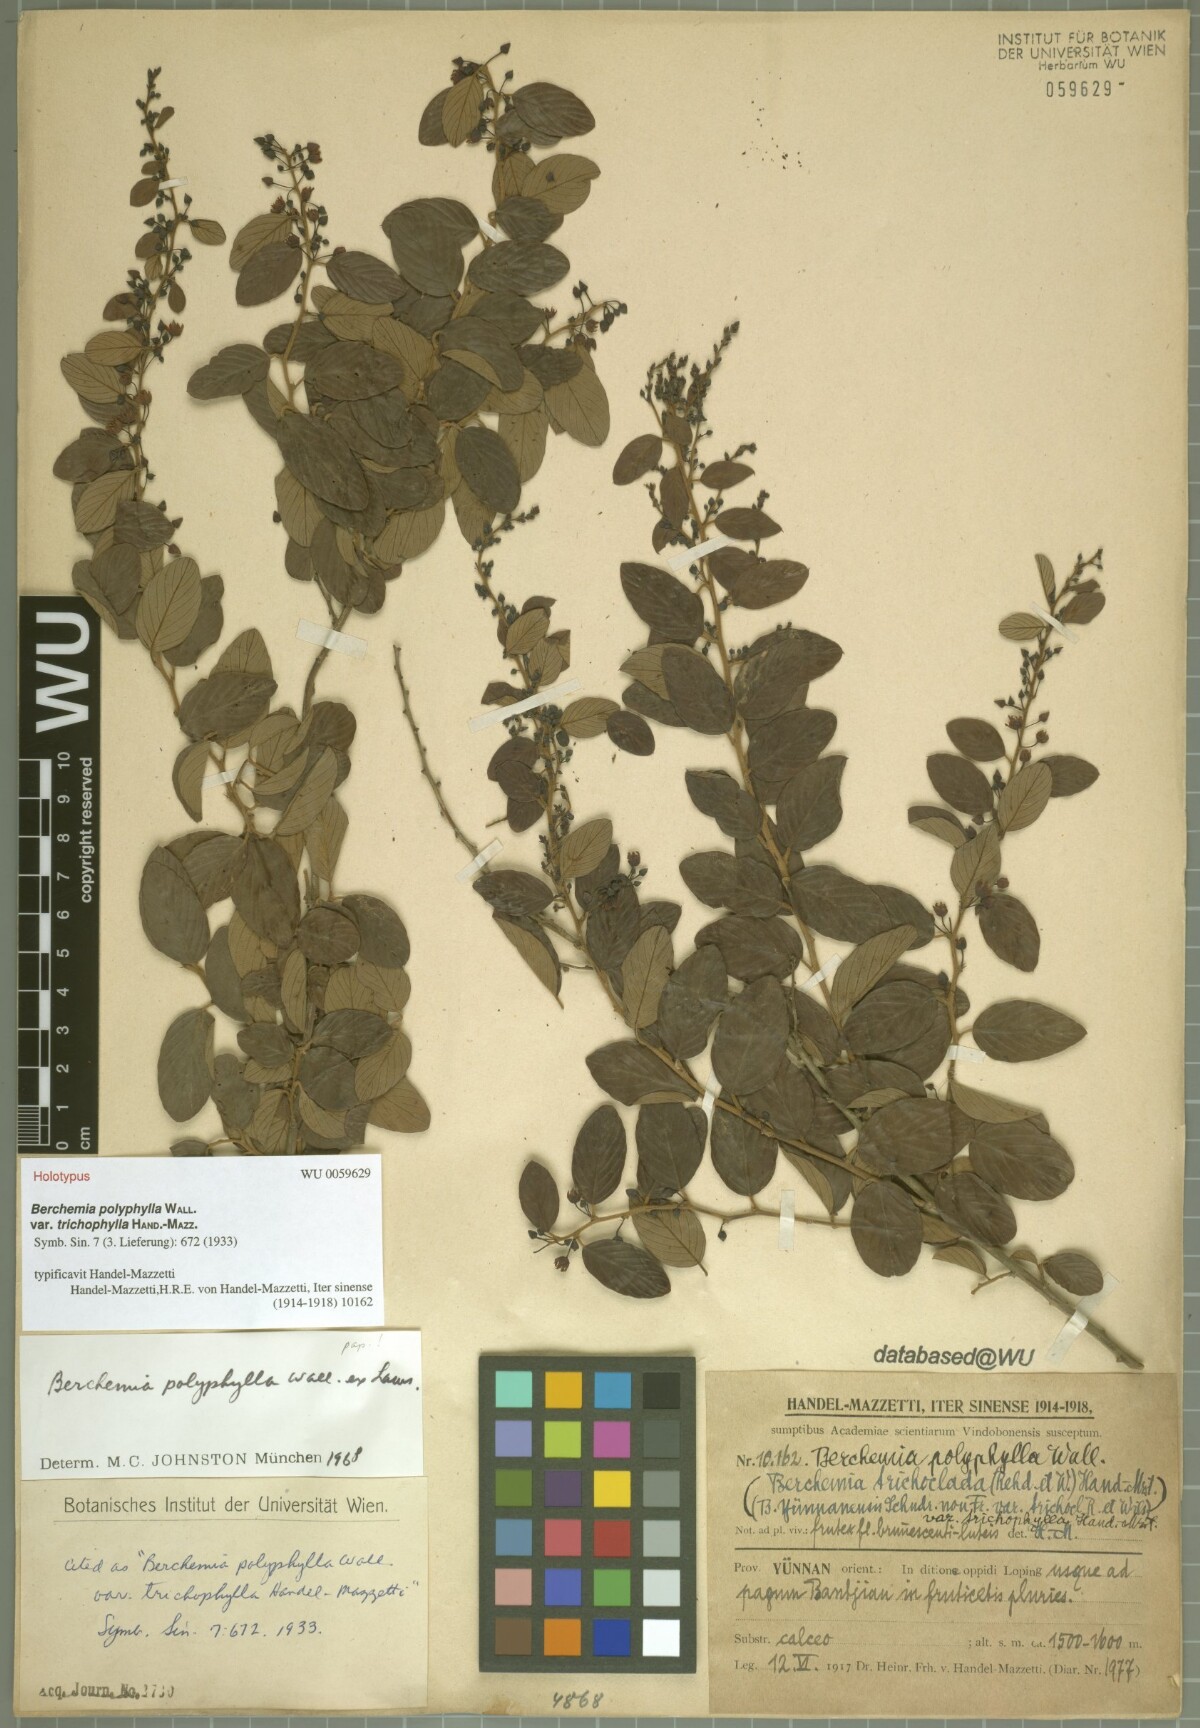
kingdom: Plantae
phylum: Tracheophyta
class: Magnoliopsida
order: Rosales
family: Rhamnaceae
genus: Berchemia
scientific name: Berchemia polyphylla
